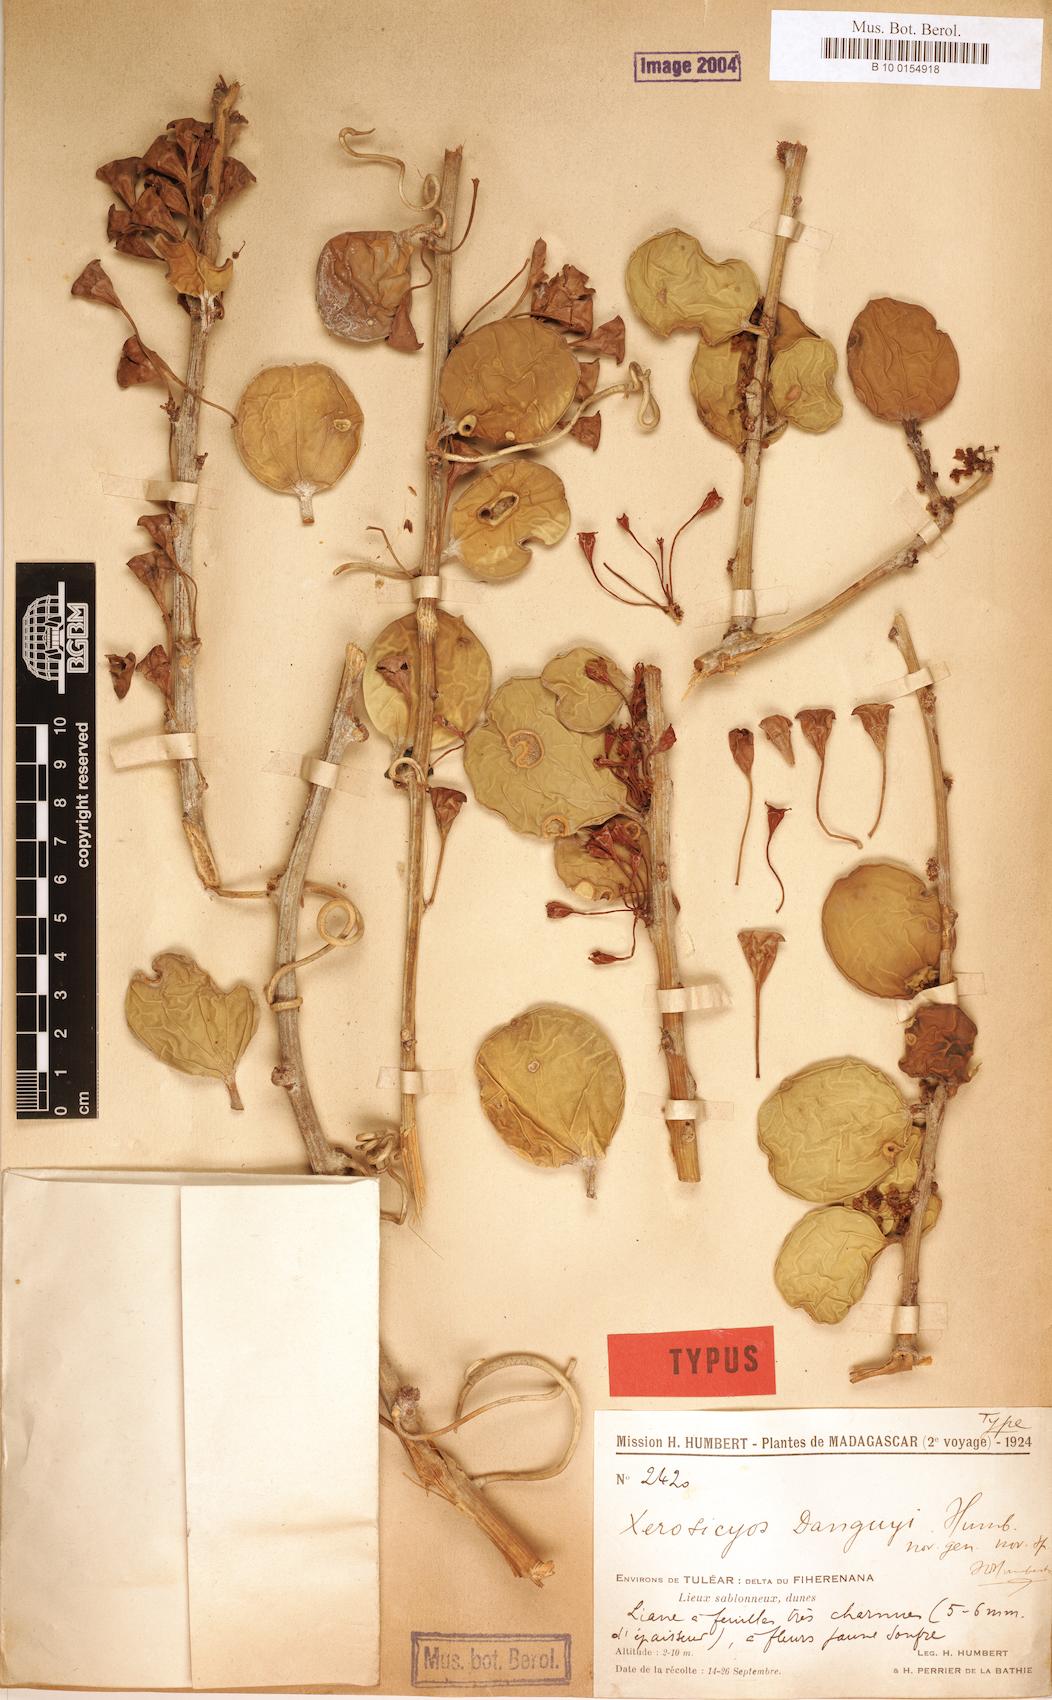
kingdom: Plantae
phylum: Tracheophyta
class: Magnoliopsida
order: Cucurbitales
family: Cucurbitaceae
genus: Xerosicyos
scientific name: Xerosicyos danguyi
